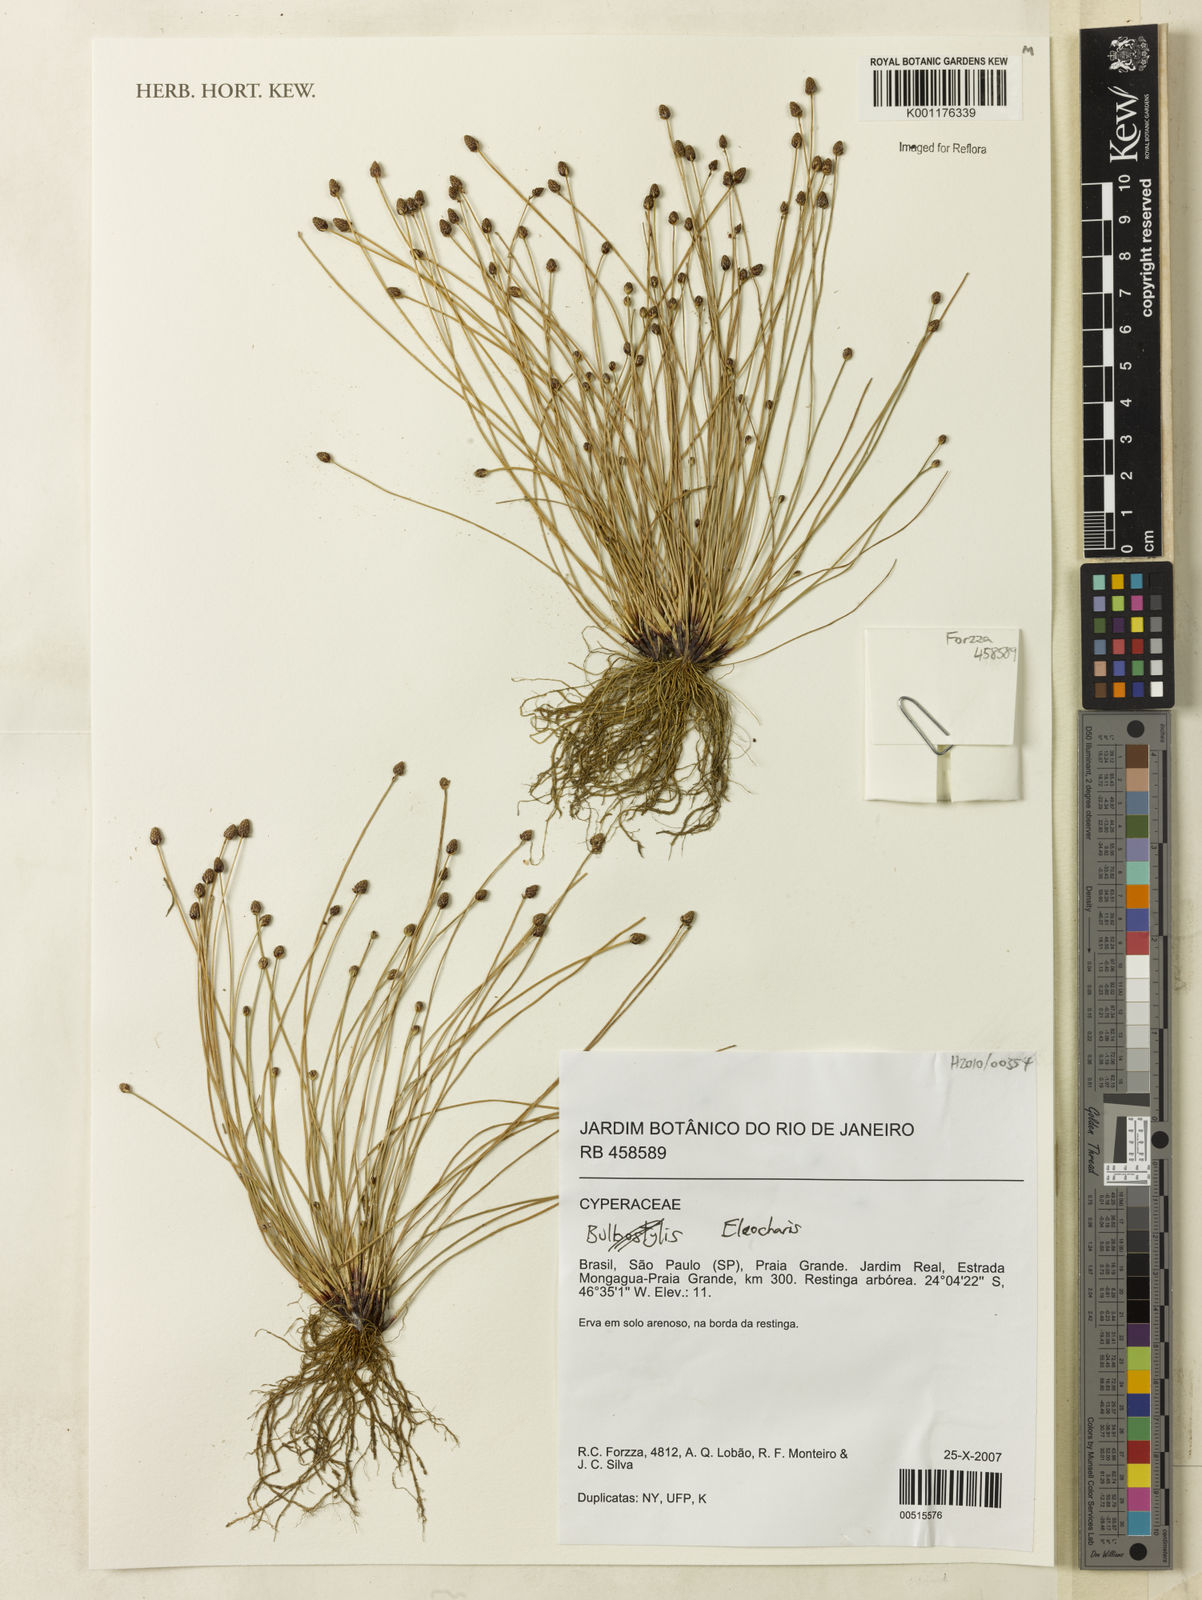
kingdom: Plantae
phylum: Tracheophyta
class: Liliopsida
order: Poales
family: Cyperaceae
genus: Eleocharis
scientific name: Eleocharis
